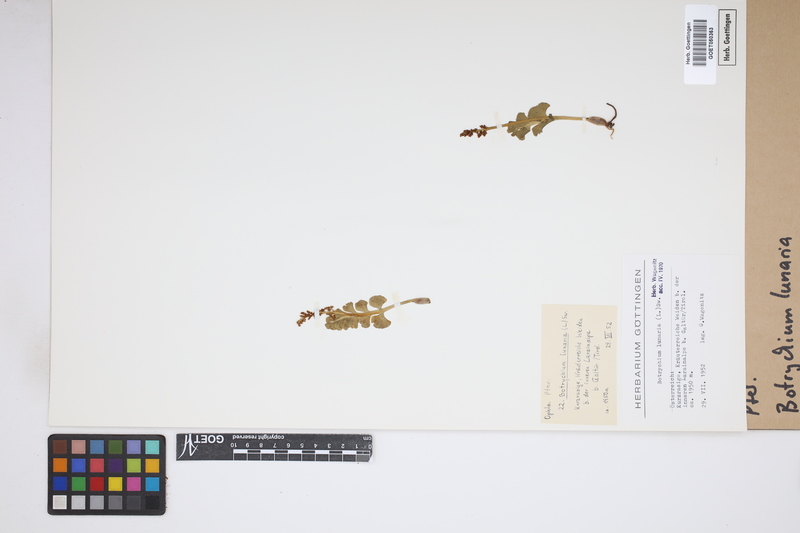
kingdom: Plantae
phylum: Tracheophyta
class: Polypodiopsida
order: Ophioglossales
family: Ophioglossaceae
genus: Botrychium
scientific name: Botrychium lunaria
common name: Moonwort
